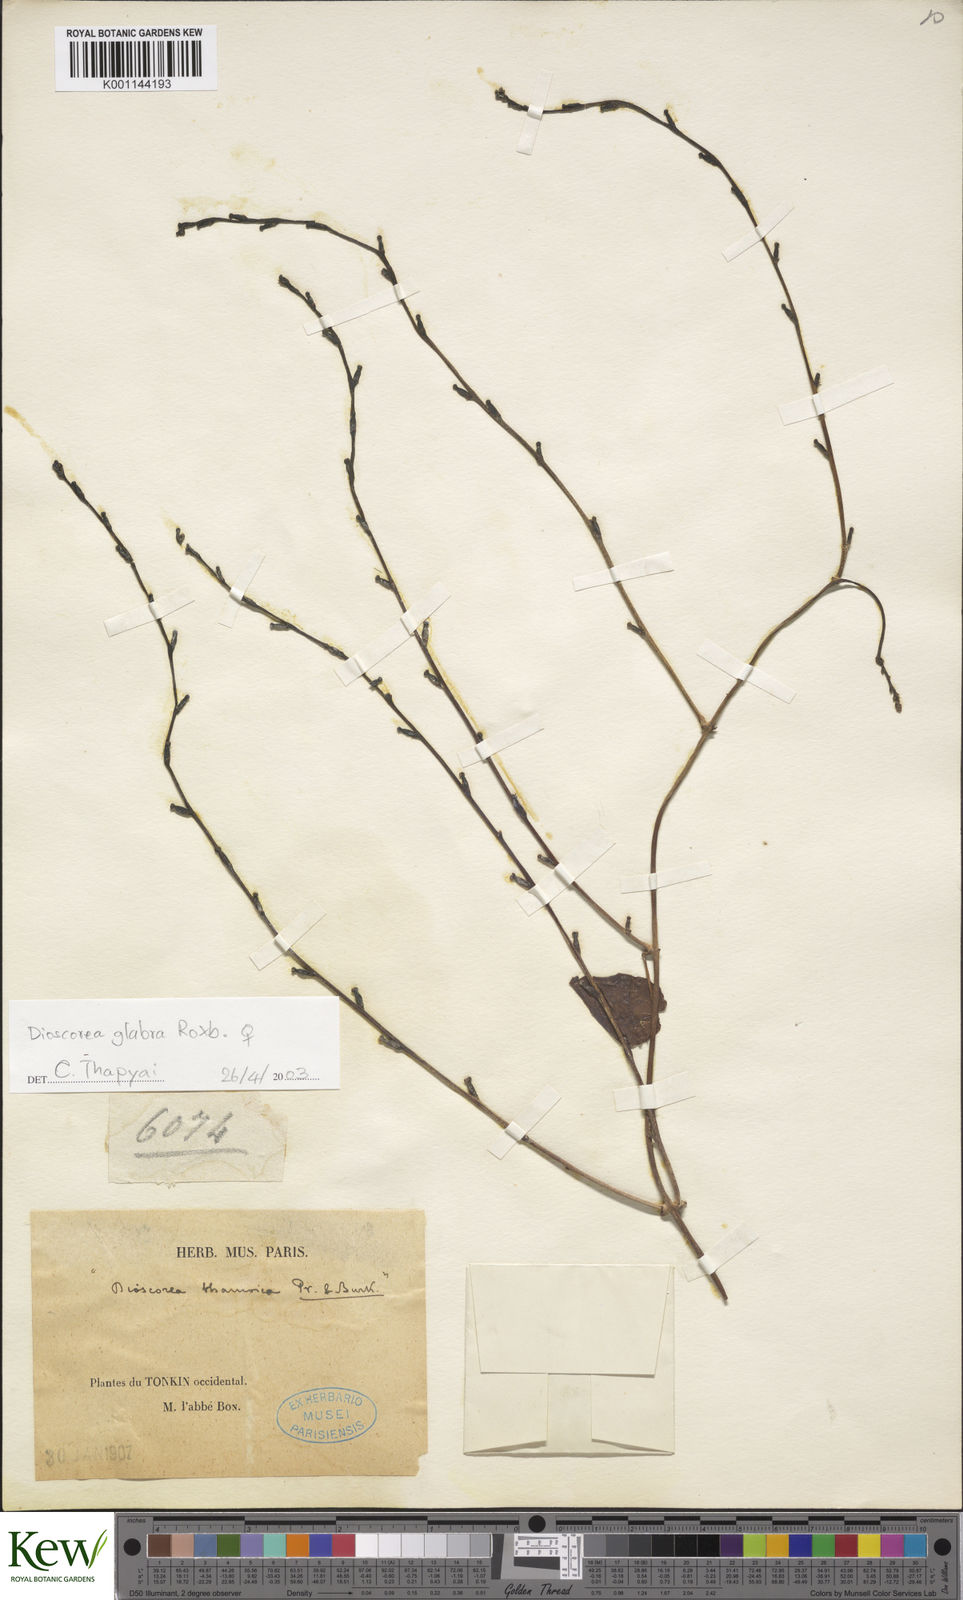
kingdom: Plantae
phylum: Tracheophyta
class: Liliopsida
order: Dioscoreales
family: Dioscoreaceae
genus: Dioscorea
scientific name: Dioscorea lepcharum
